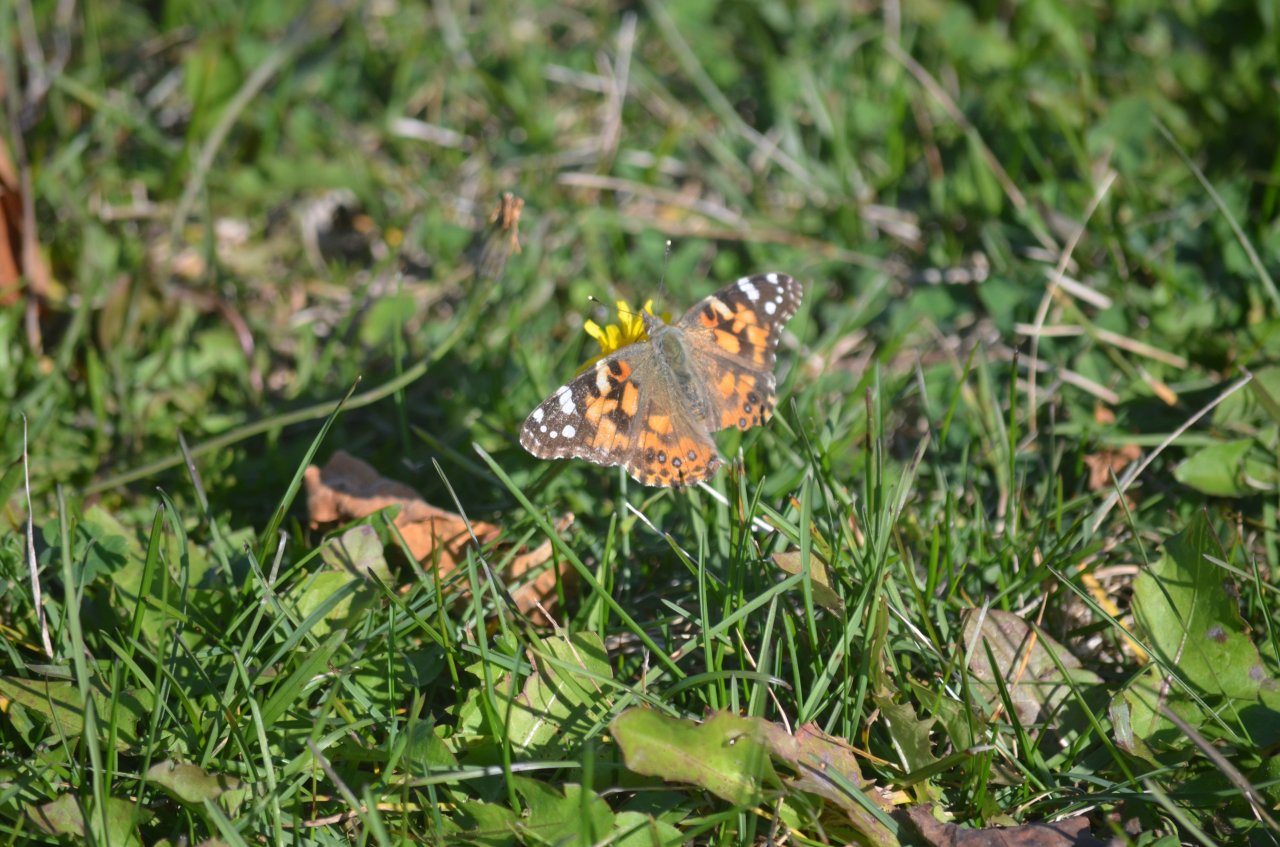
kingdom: Animalia
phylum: Arthropoda
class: Insecta
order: Lepidoptera
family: Nymphalidae
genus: Vanessa
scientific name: Vanessa cardui
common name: Painted Lady
